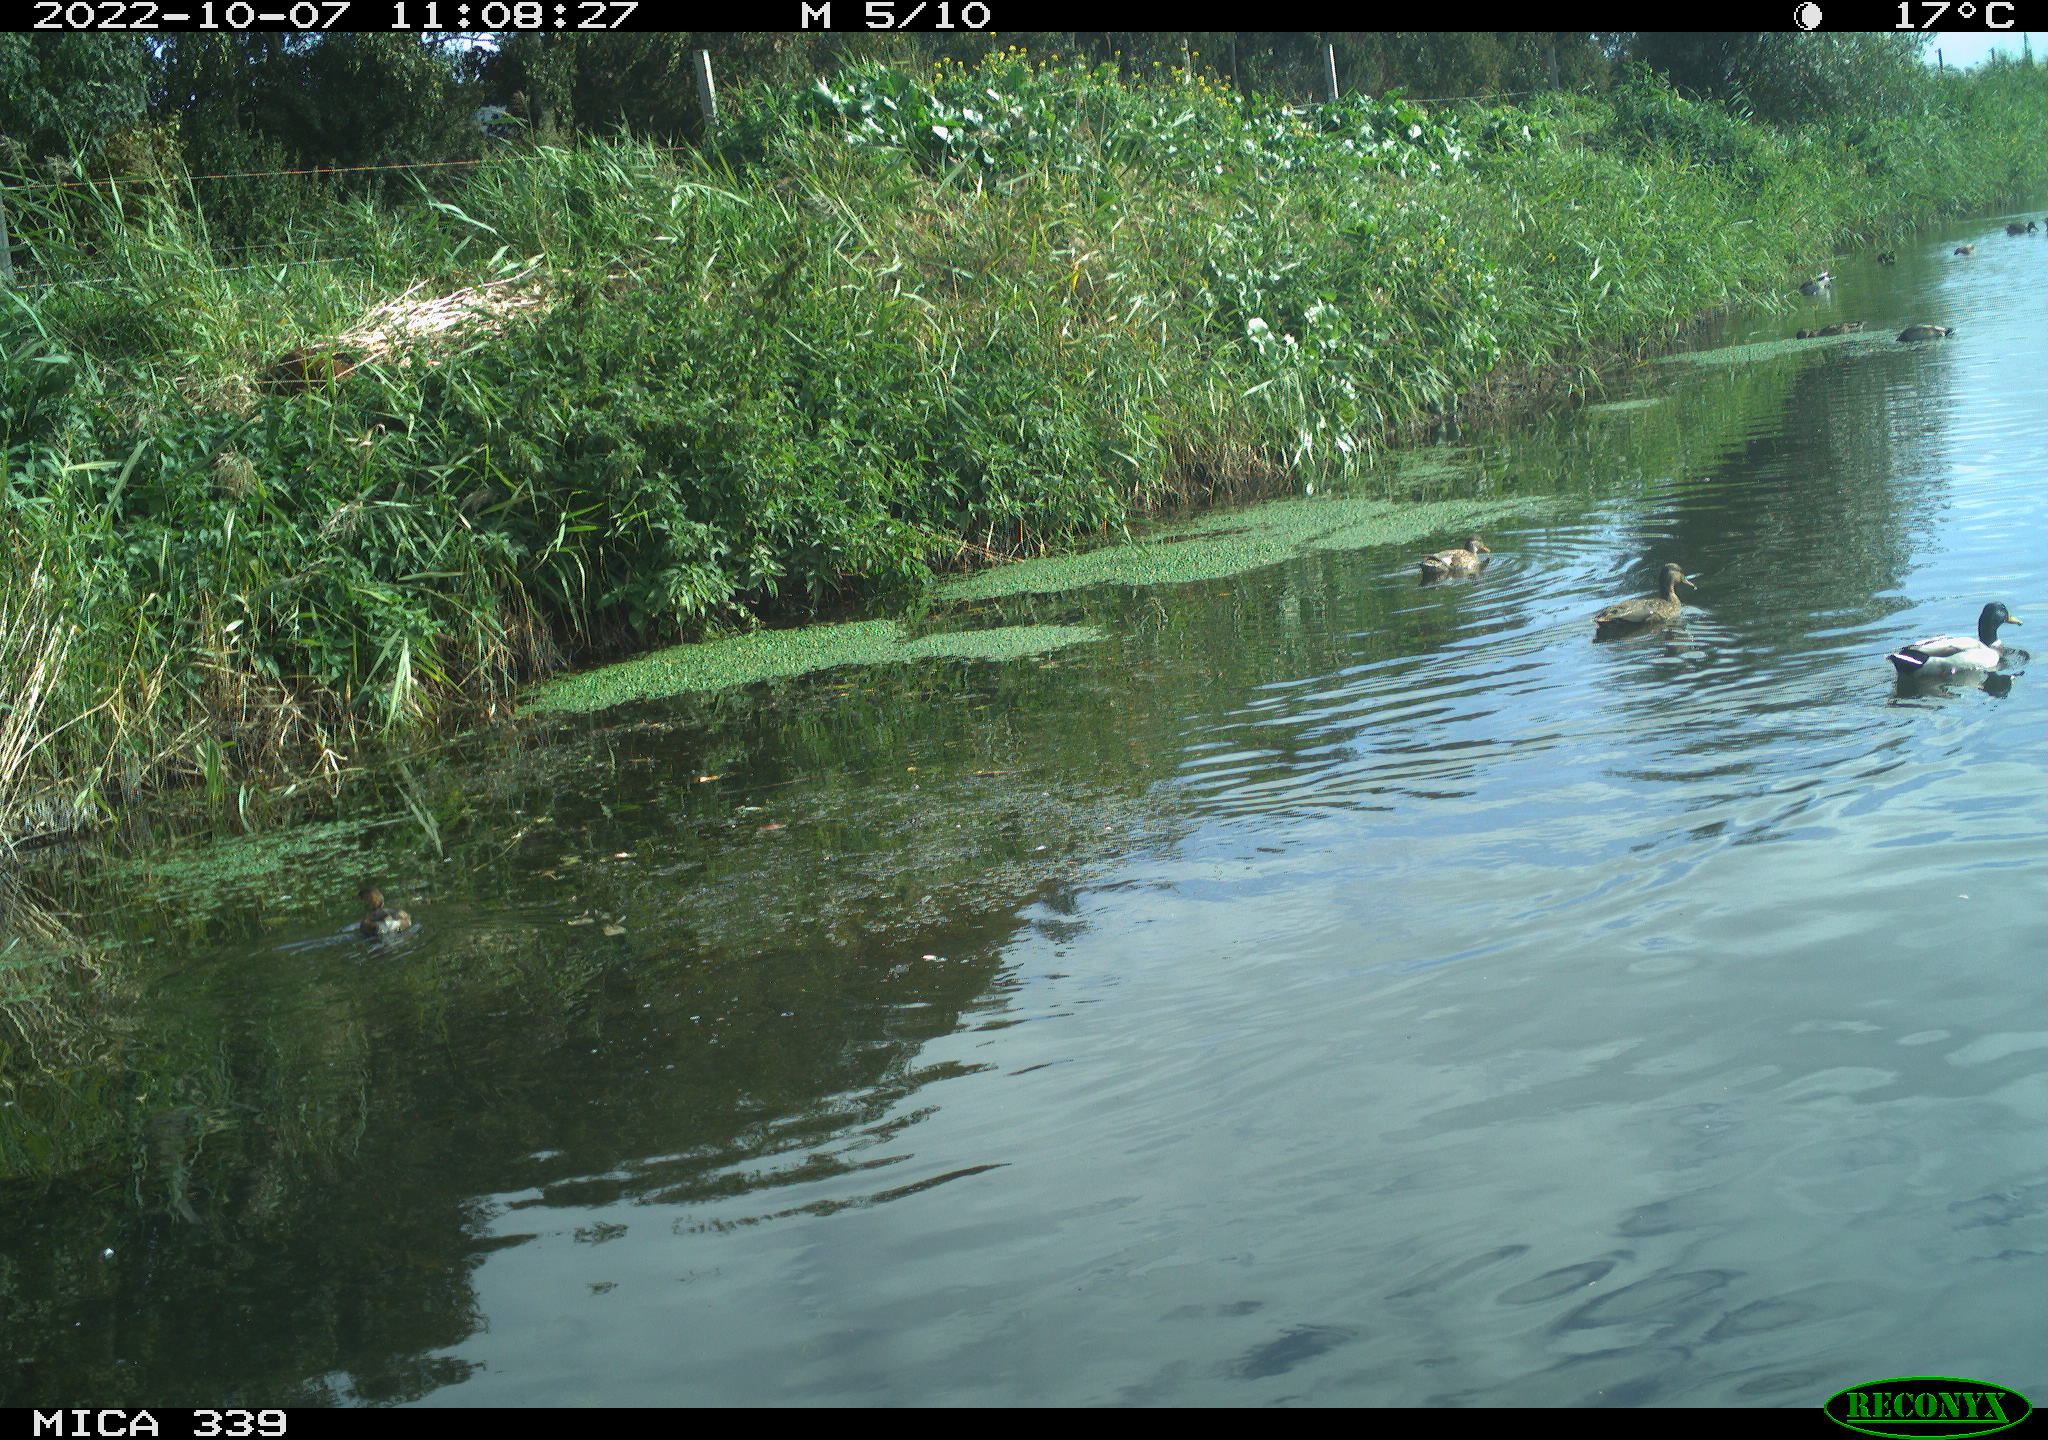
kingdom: Animalia
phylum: Chordata
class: Aves
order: Anseriformes
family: Anatidae
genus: Anas
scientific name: Anas platyrhynchos
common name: Mallard
